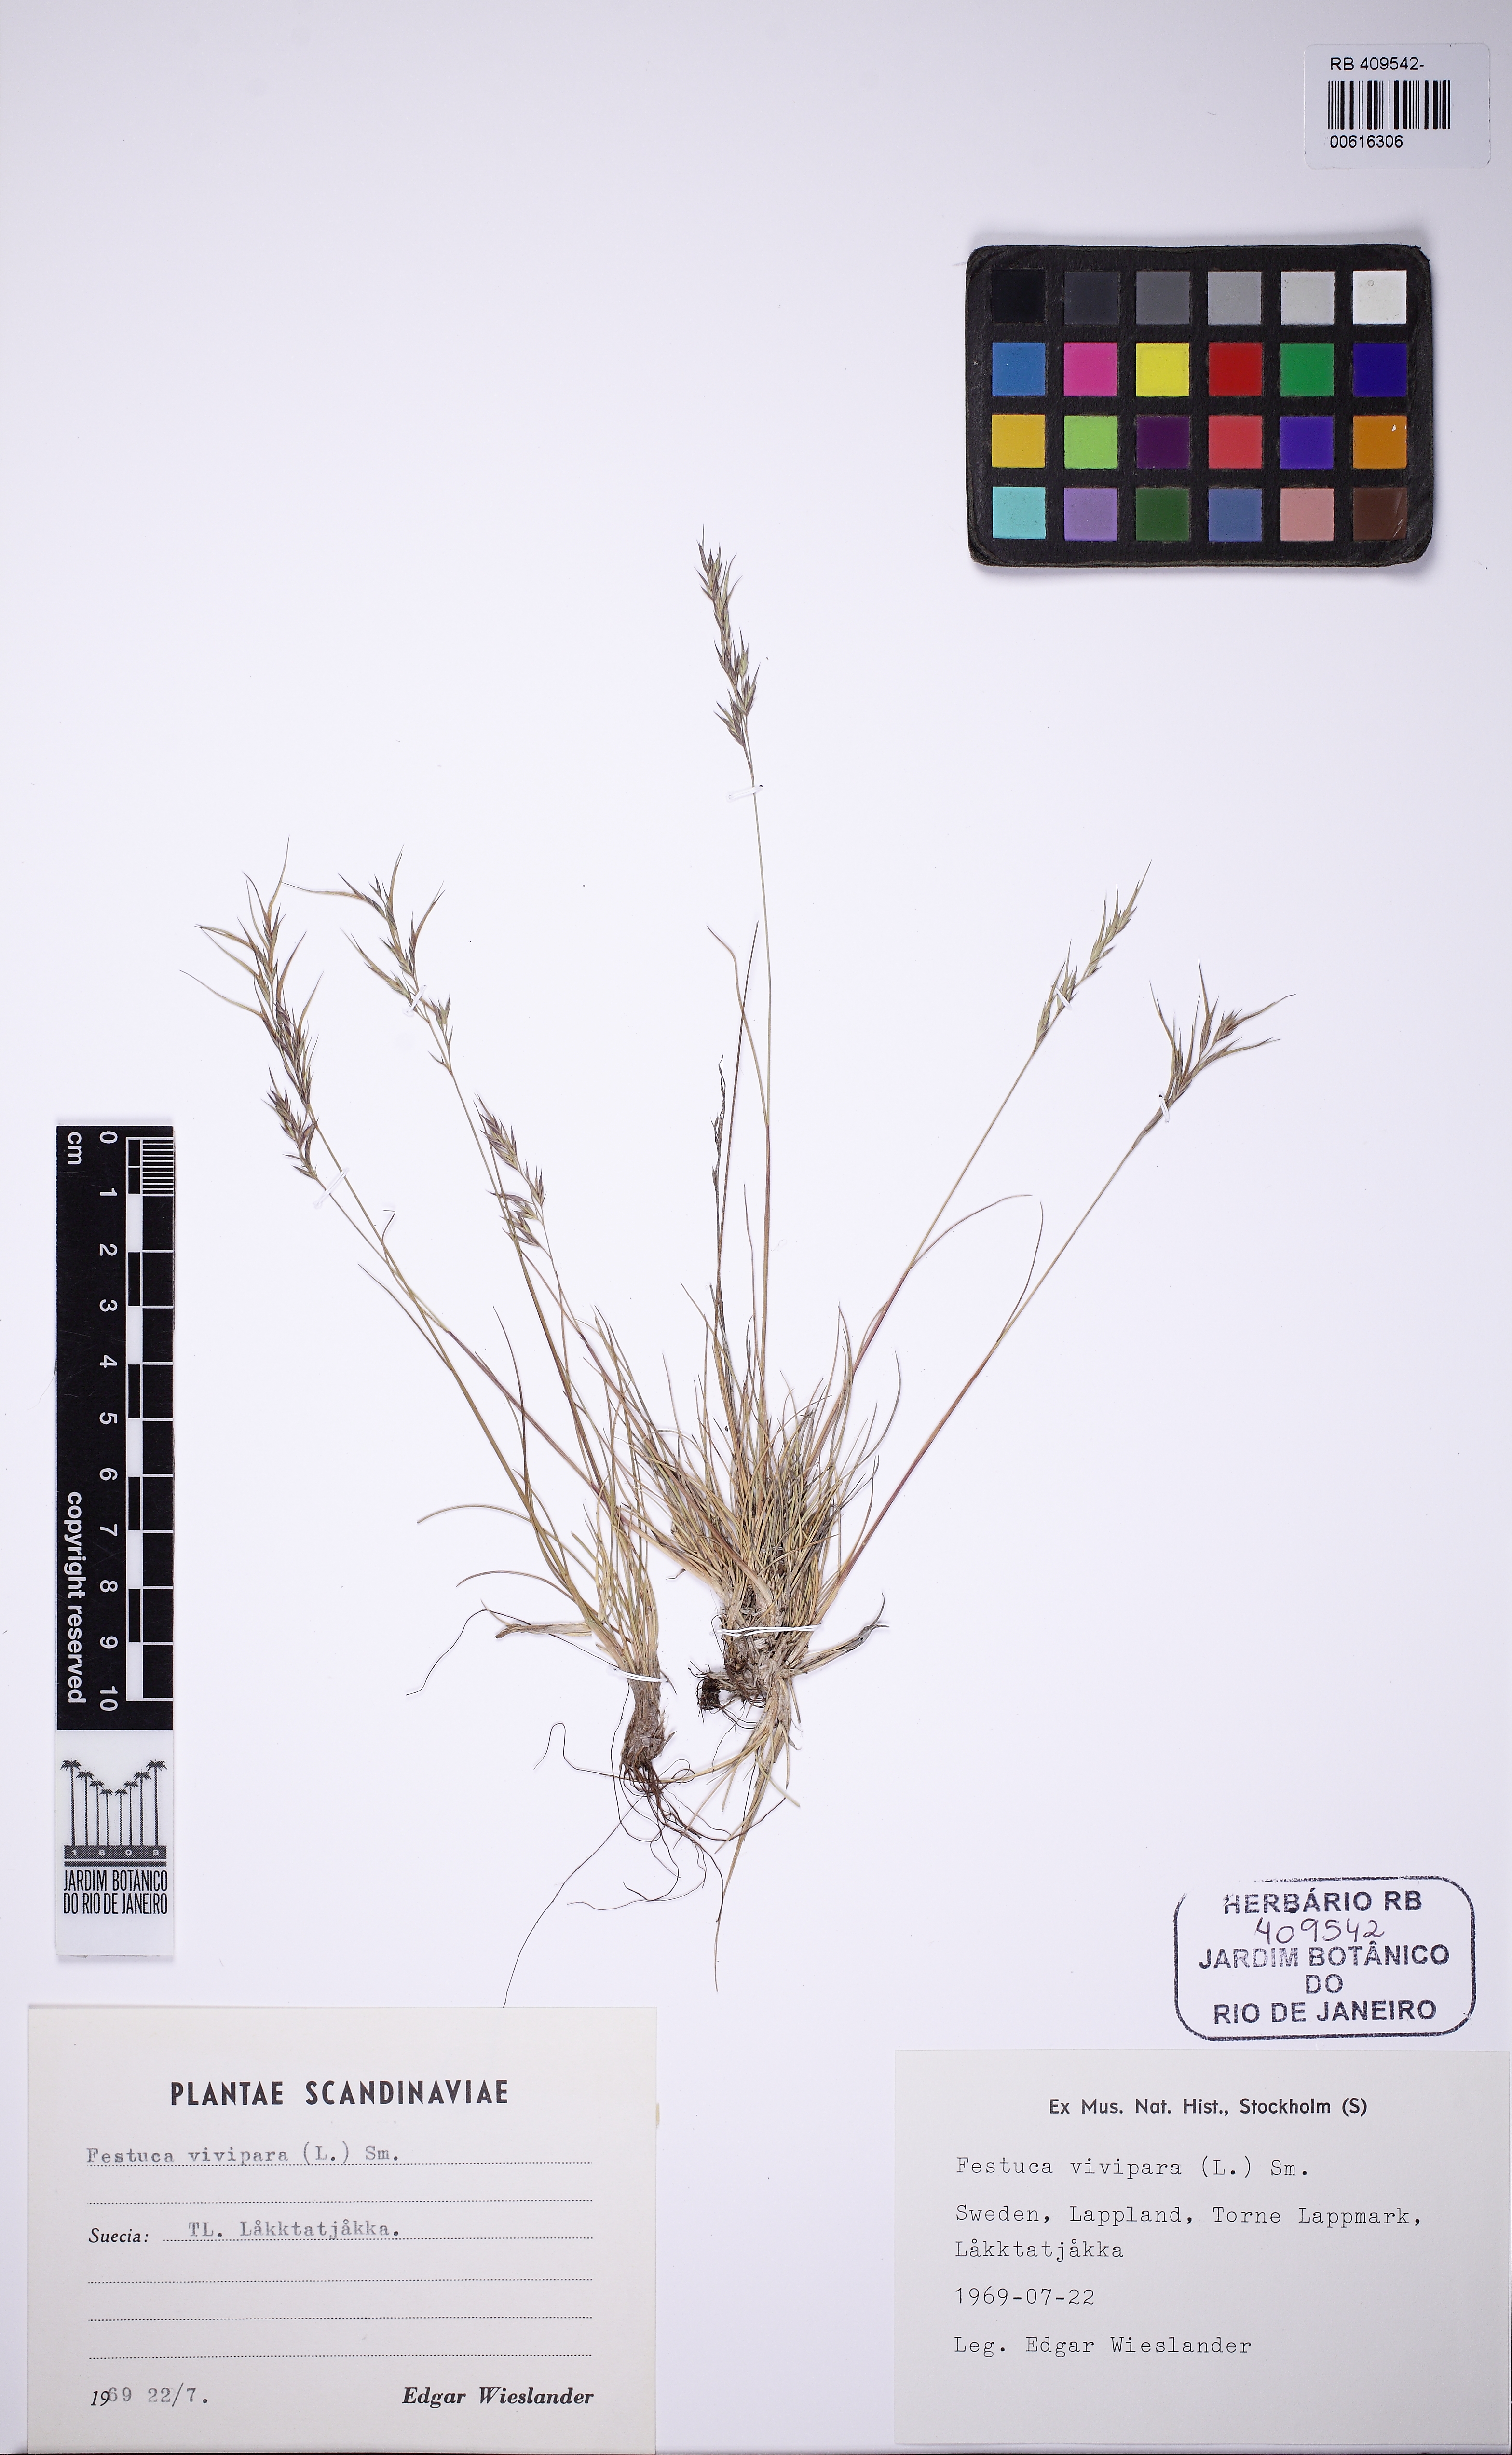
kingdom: Plantae
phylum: Tracheophyta
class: Liliopsida
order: Poales
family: Poaceae
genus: Festuca
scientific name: Festuca vivipara
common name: Viviparous sheep's-fescue
